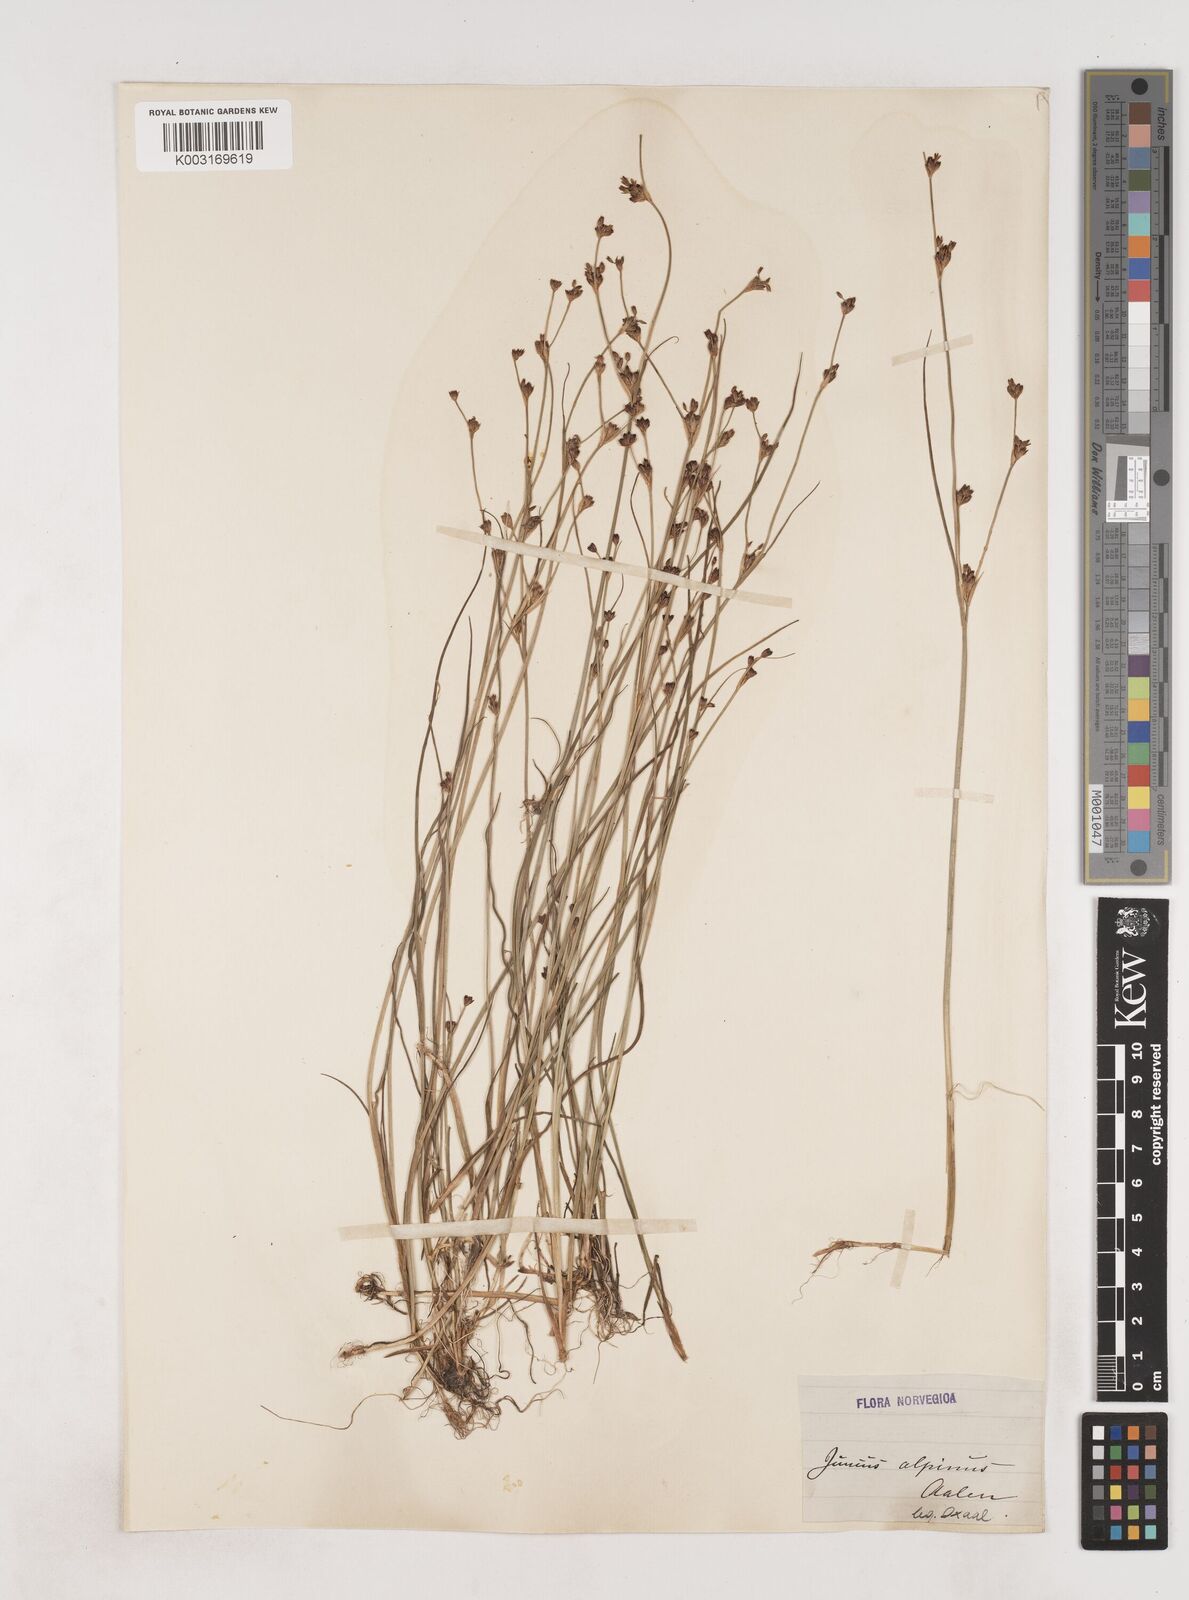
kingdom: Plantae
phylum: Tracheophyta
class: Liliopsida
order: Poales
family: Juncaceae
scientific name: Juncaceae
